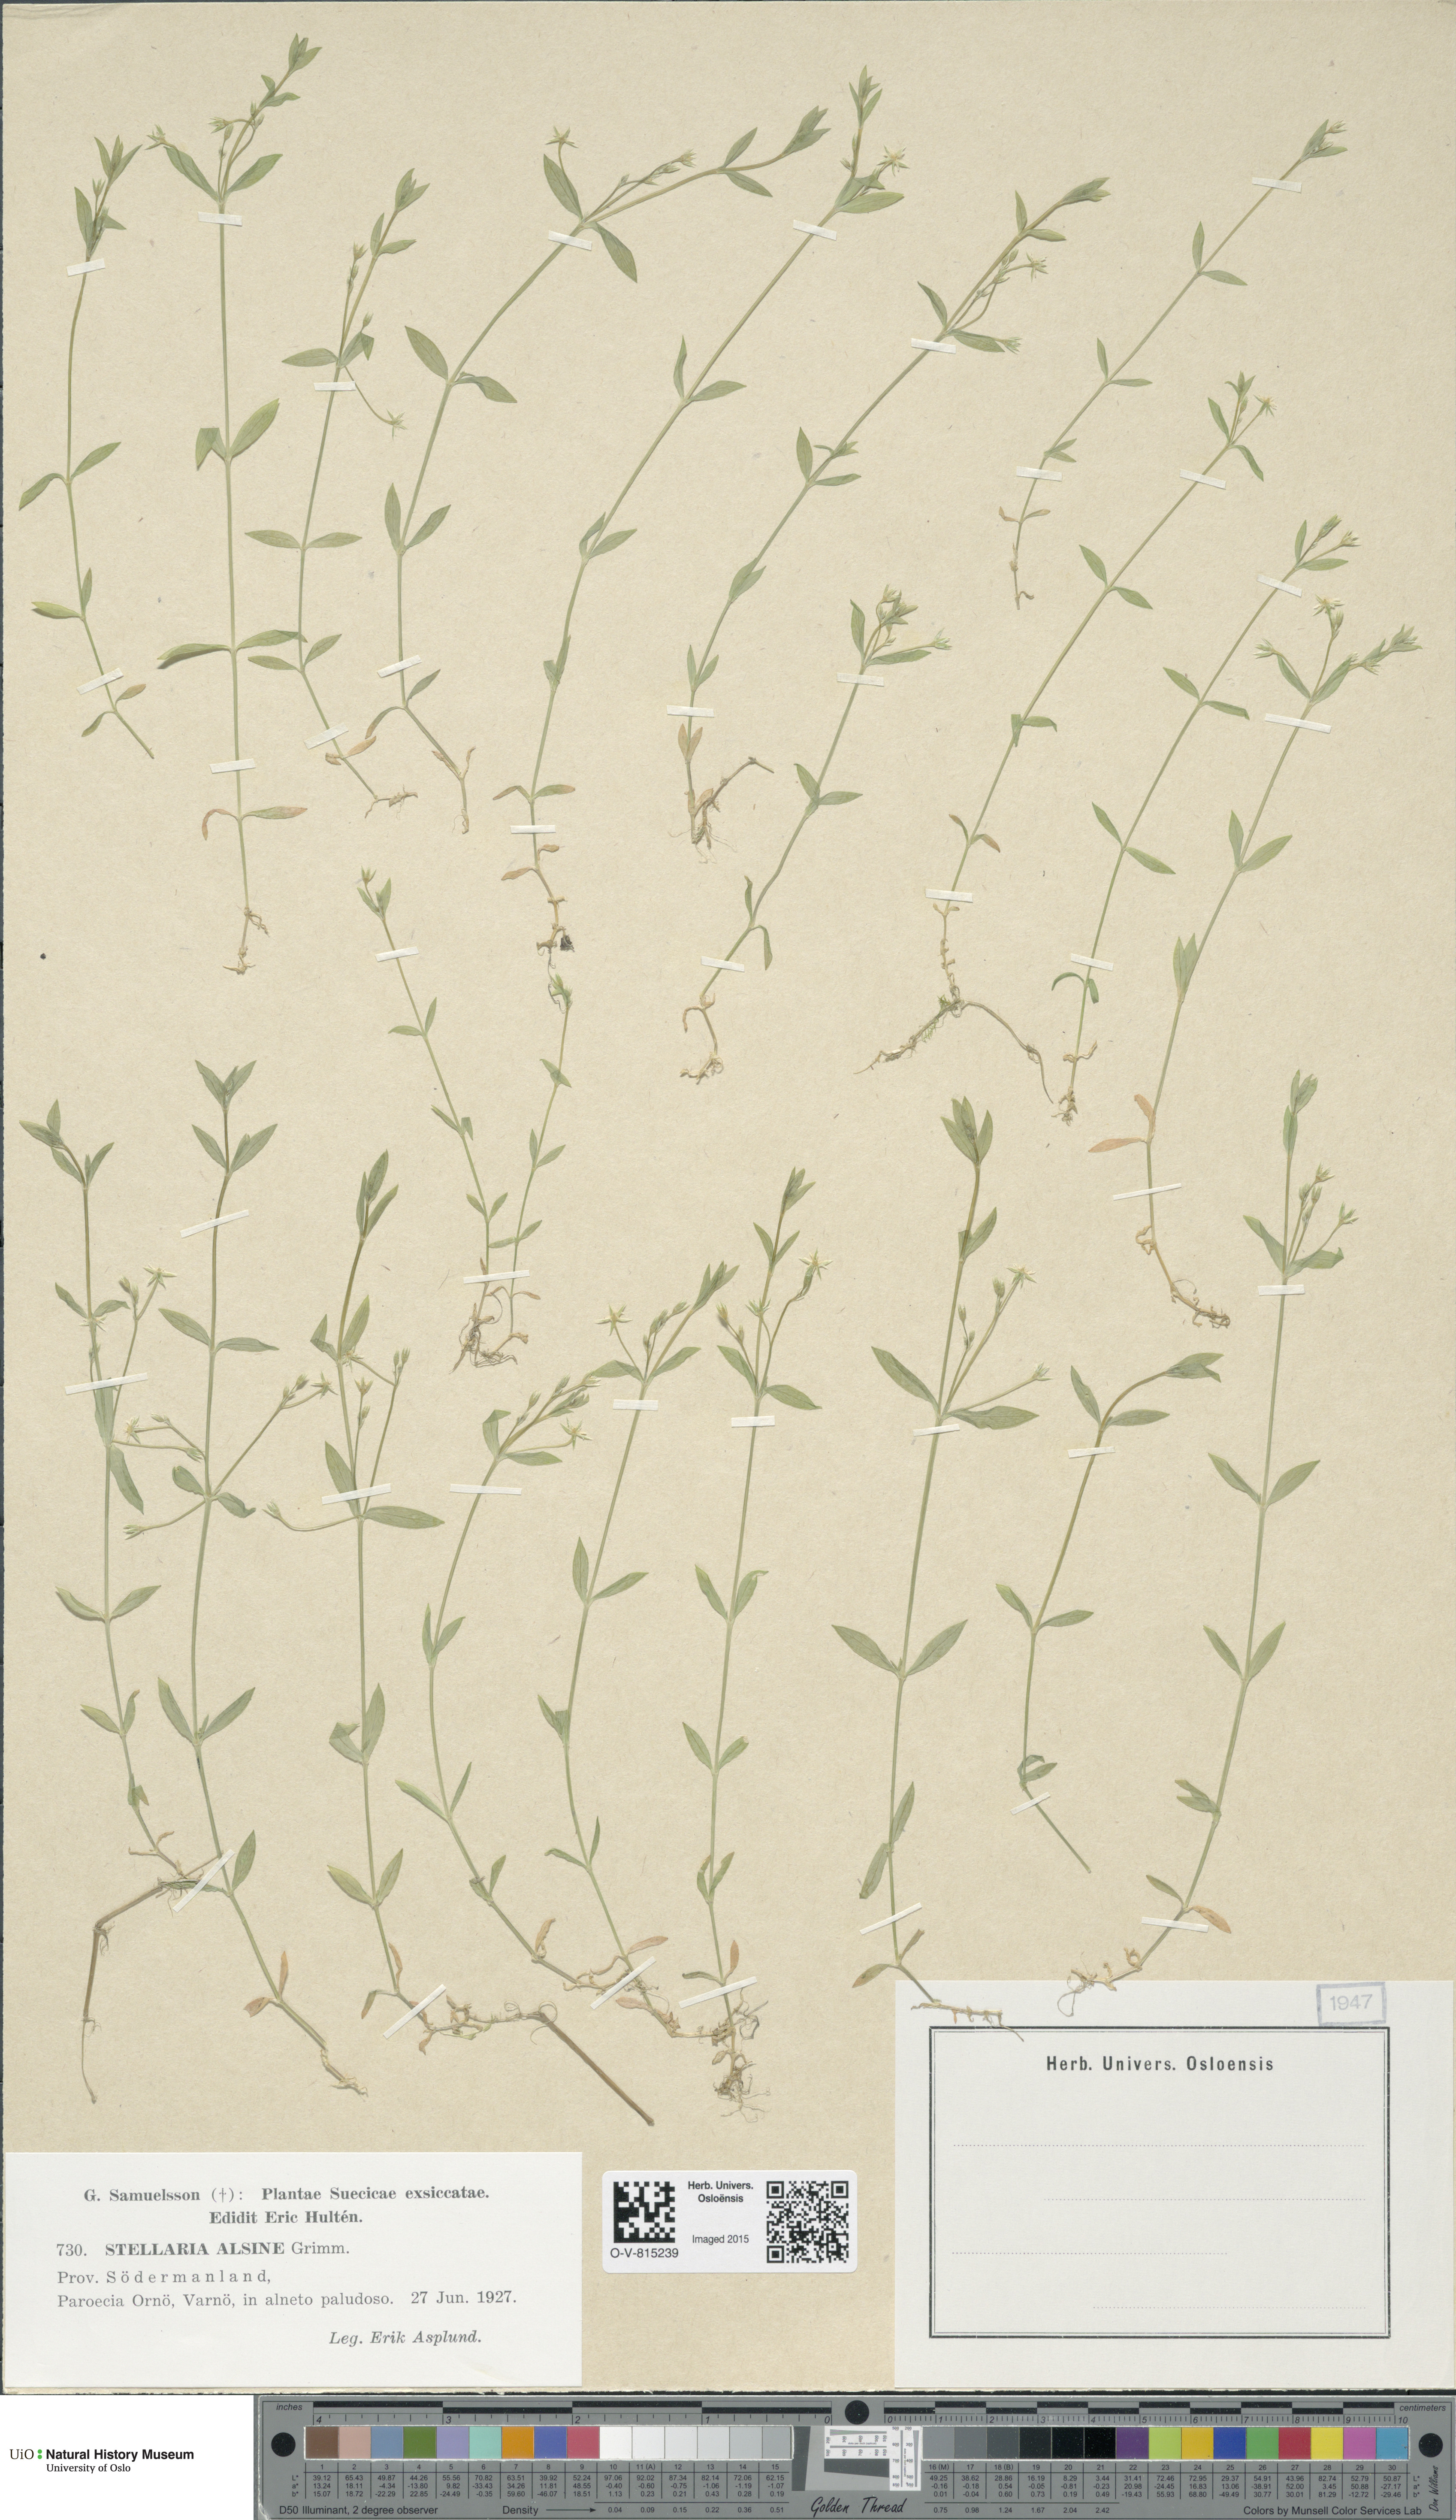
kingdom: Plantae
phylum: Tracheophyta
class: Magnoliopsida
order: Caryophyllales
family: Caryophyllaceae
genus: Stellaria
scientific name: Stellaria alsine
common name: Bog stitchwort
